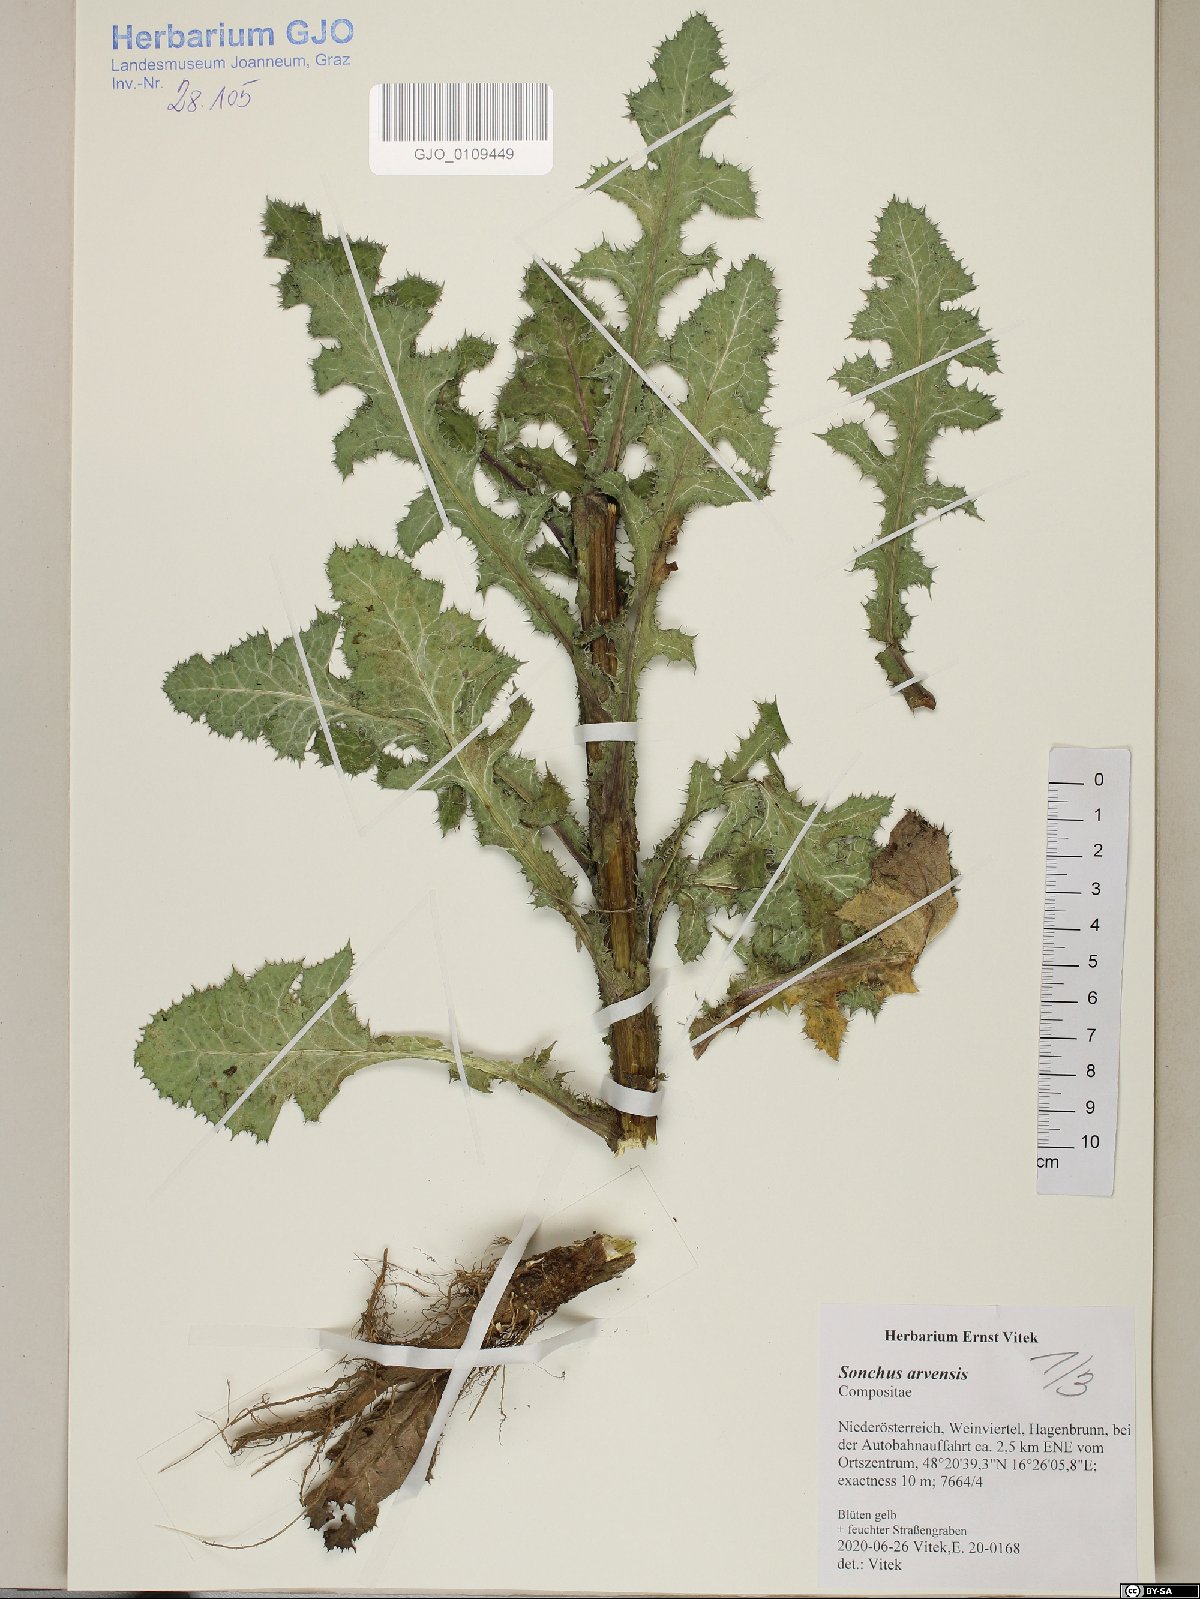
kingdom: Plantae
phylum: Tracheophyta
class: Magnoliopsida
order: Asterales
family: Asteraceae
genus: Sonchus
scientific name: Sonchus arvensis
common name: Perennial sow-thistle
